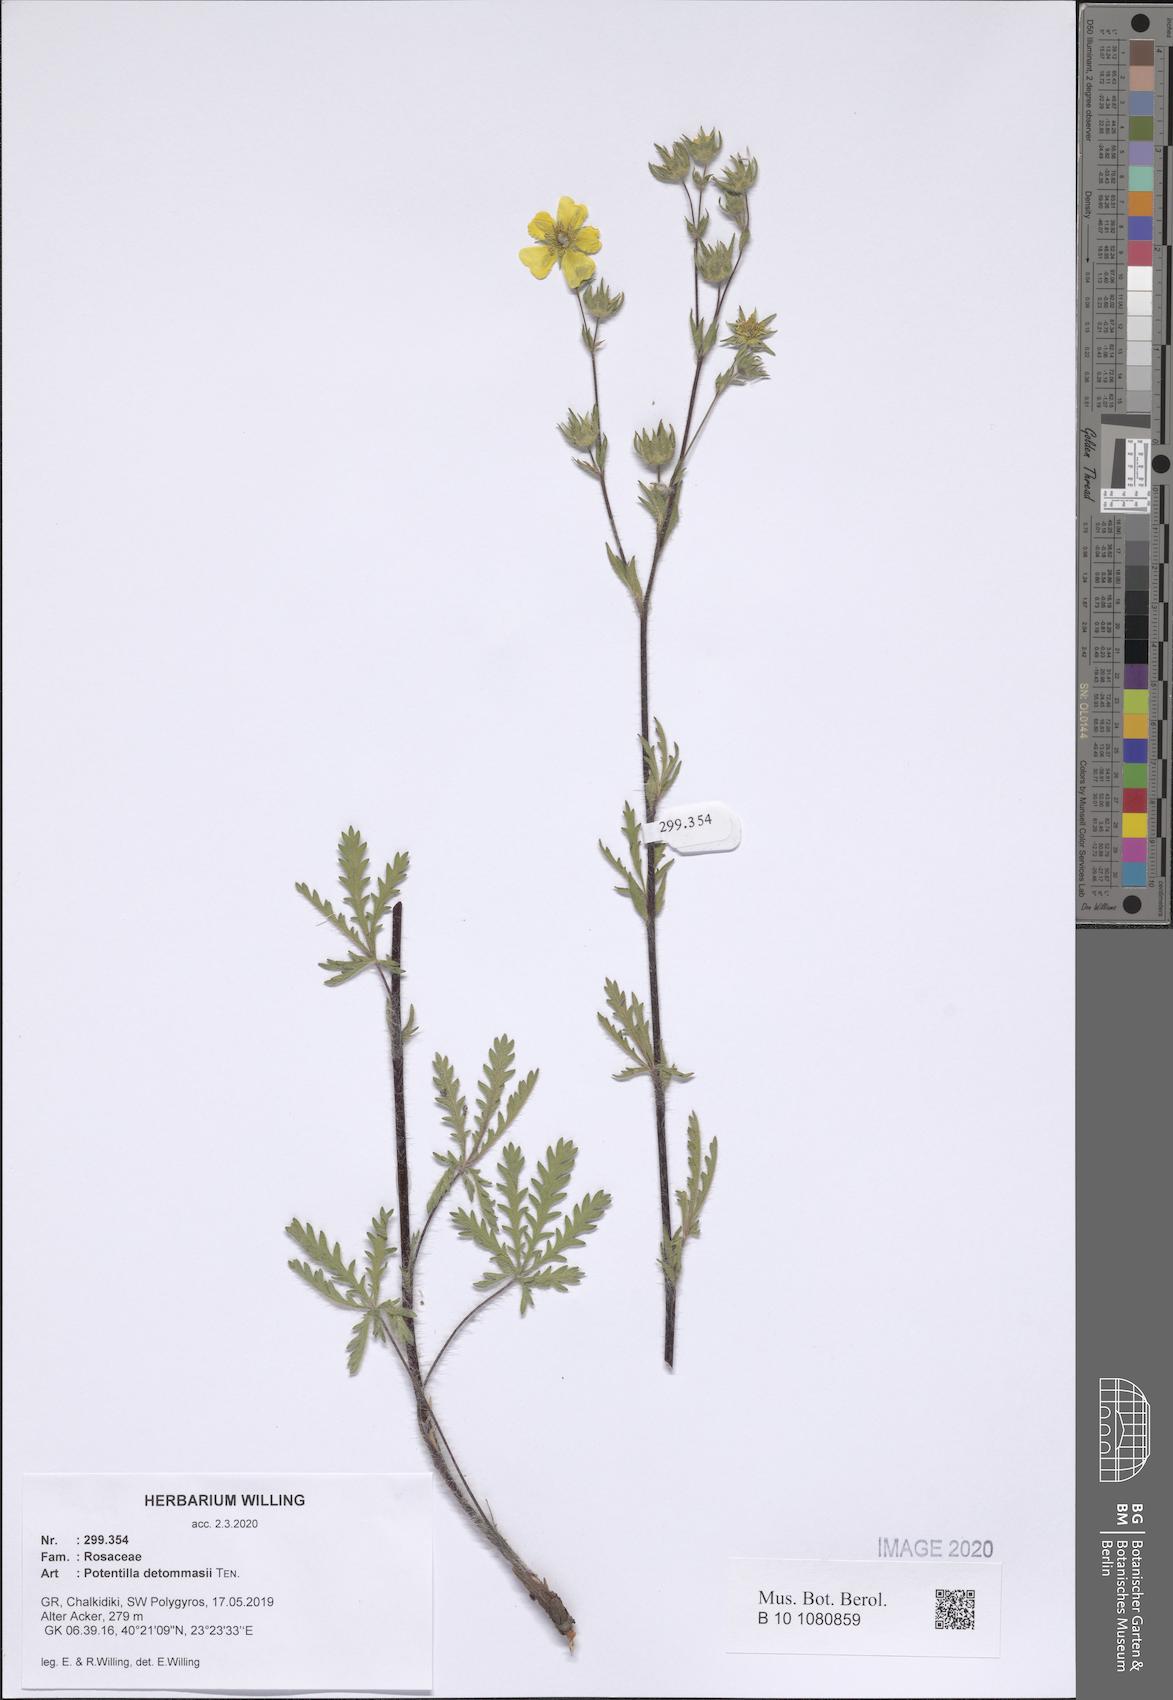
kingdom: Plantae
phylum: Tracheophyta
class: Magnoliopsida
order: Rosales
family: Rosaceae
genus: Potentilla
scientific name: Potentilla detommasii
